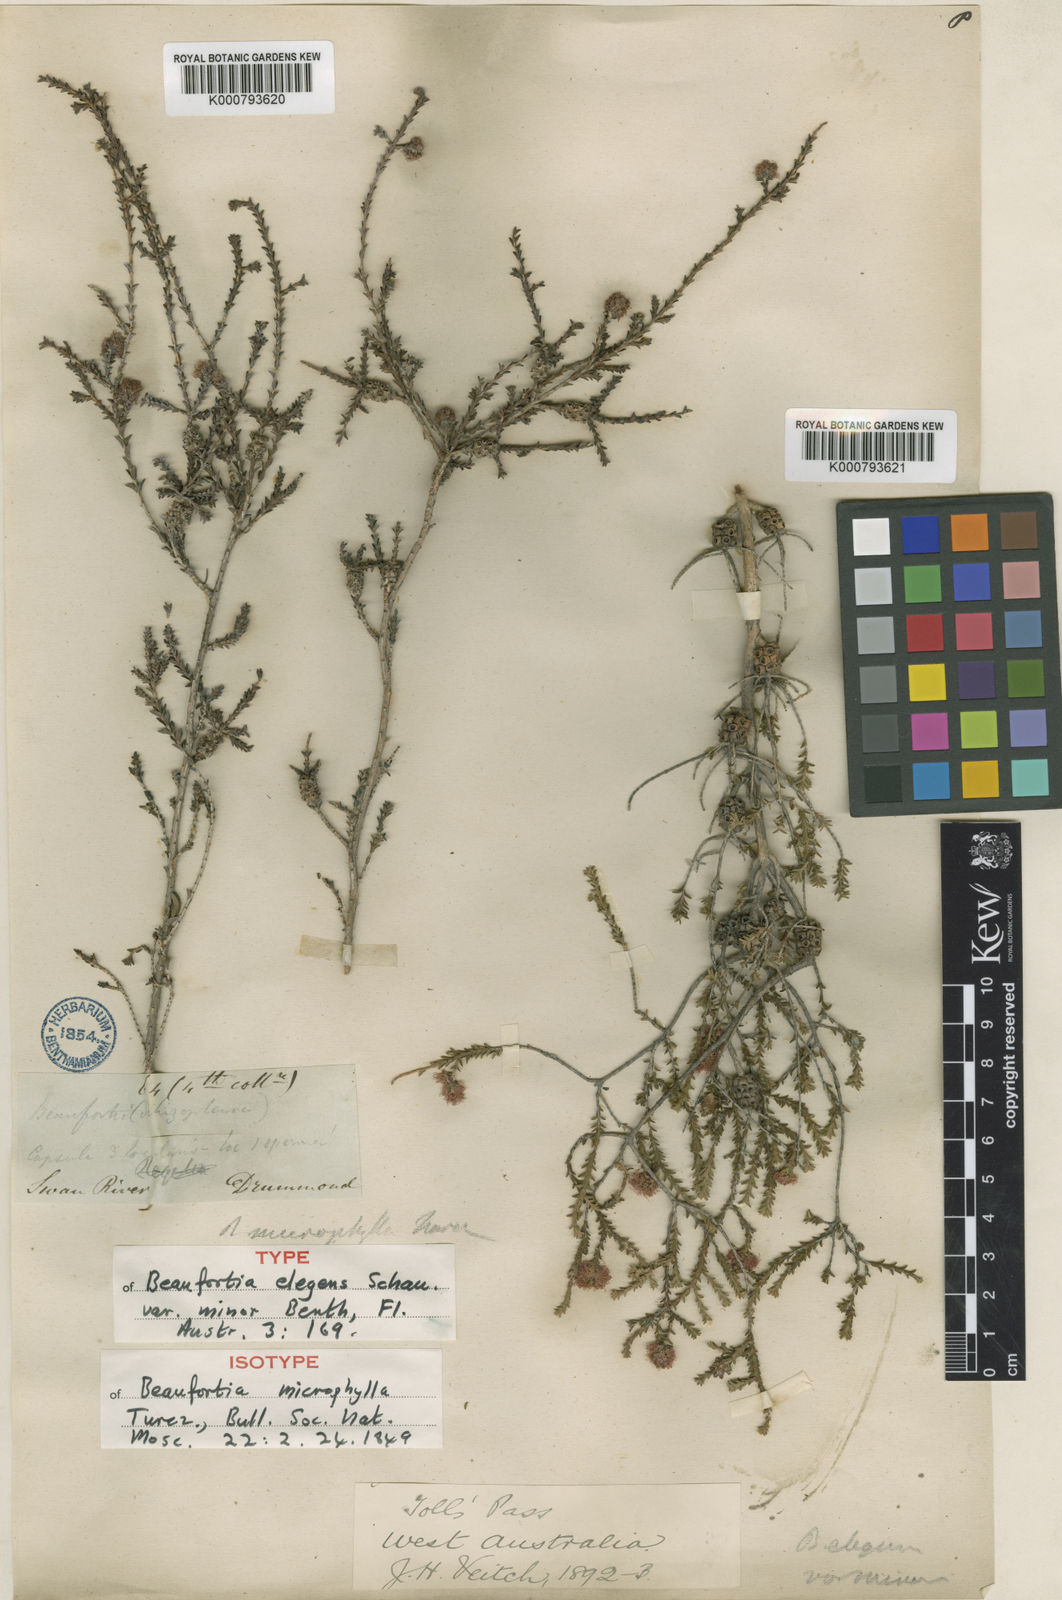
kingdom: Plantae
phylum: Tracheophyta
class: Magnoliopsida
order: Myrtales
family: Myrtaceae
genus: Melaleuca
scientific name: Melaleuca scitula
